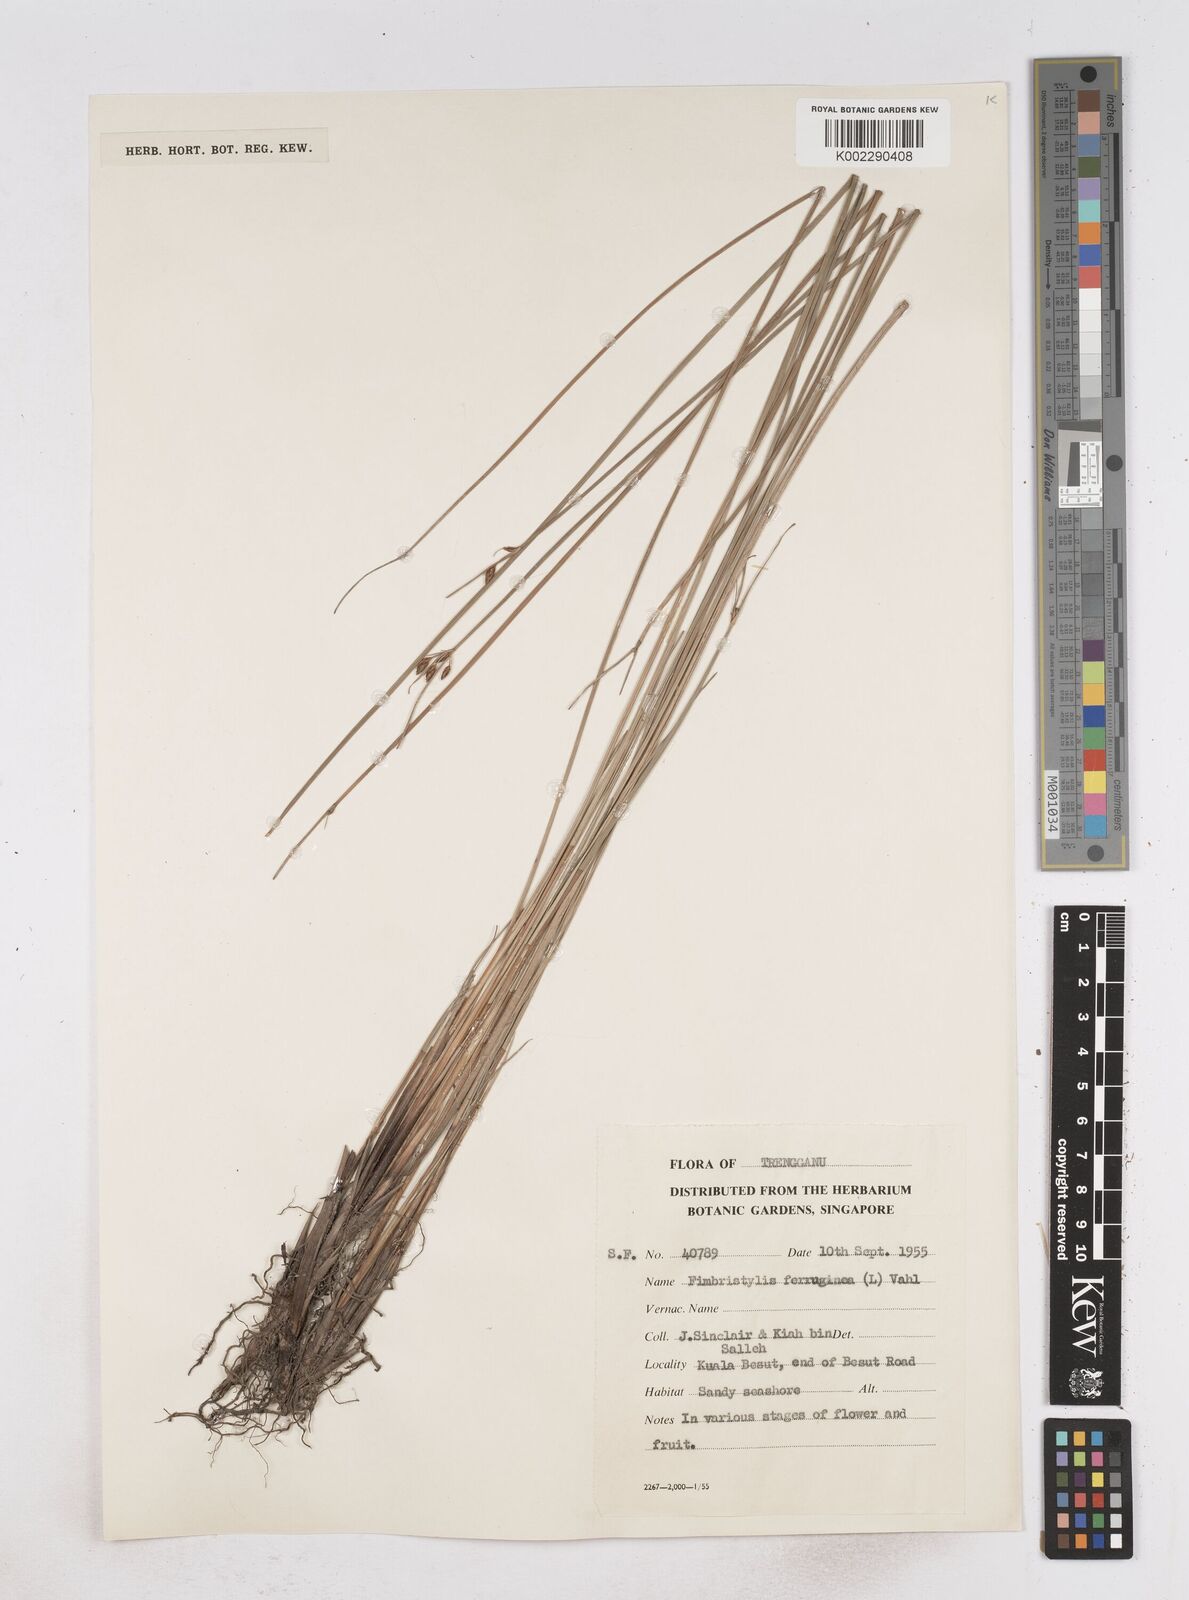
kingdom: Plantae
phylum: Tracheophyta
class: Liliopsida
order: Poales
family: Cyperaceae
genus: Fimbristylis
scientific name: Fimbristylis ferruginea
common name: West indian fimbry
